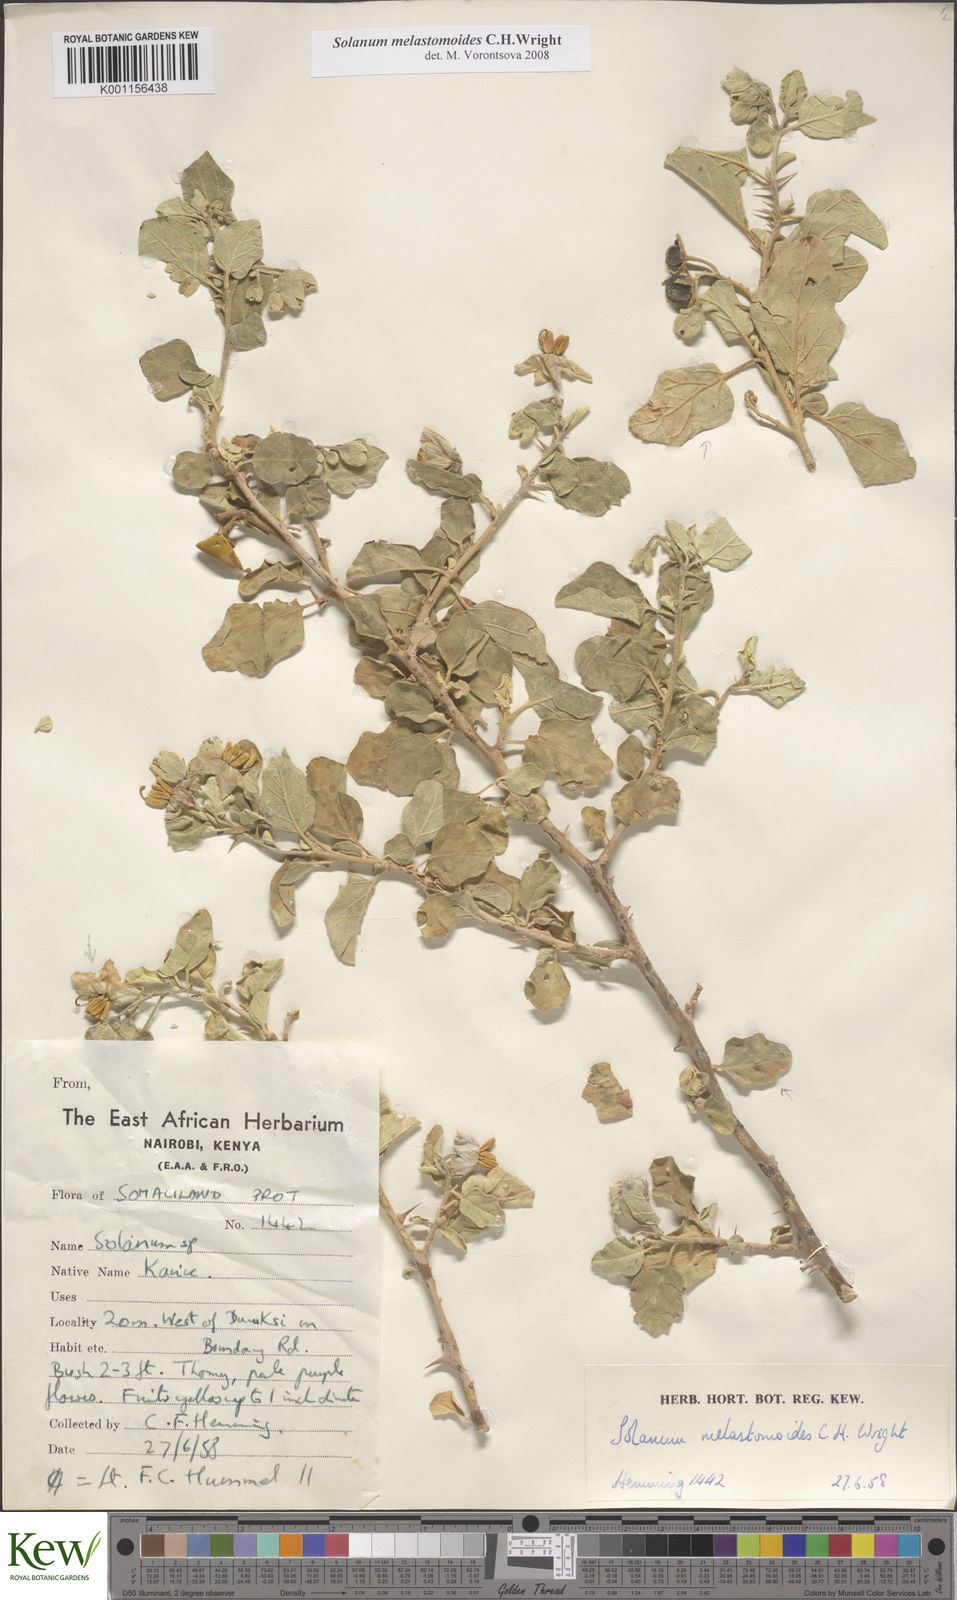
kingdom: Plantae
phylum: Tracheophyta
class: Magnoliopsida
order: Solanales
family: Solanaceae
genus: Solanum
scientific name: Solanum melastomoides
